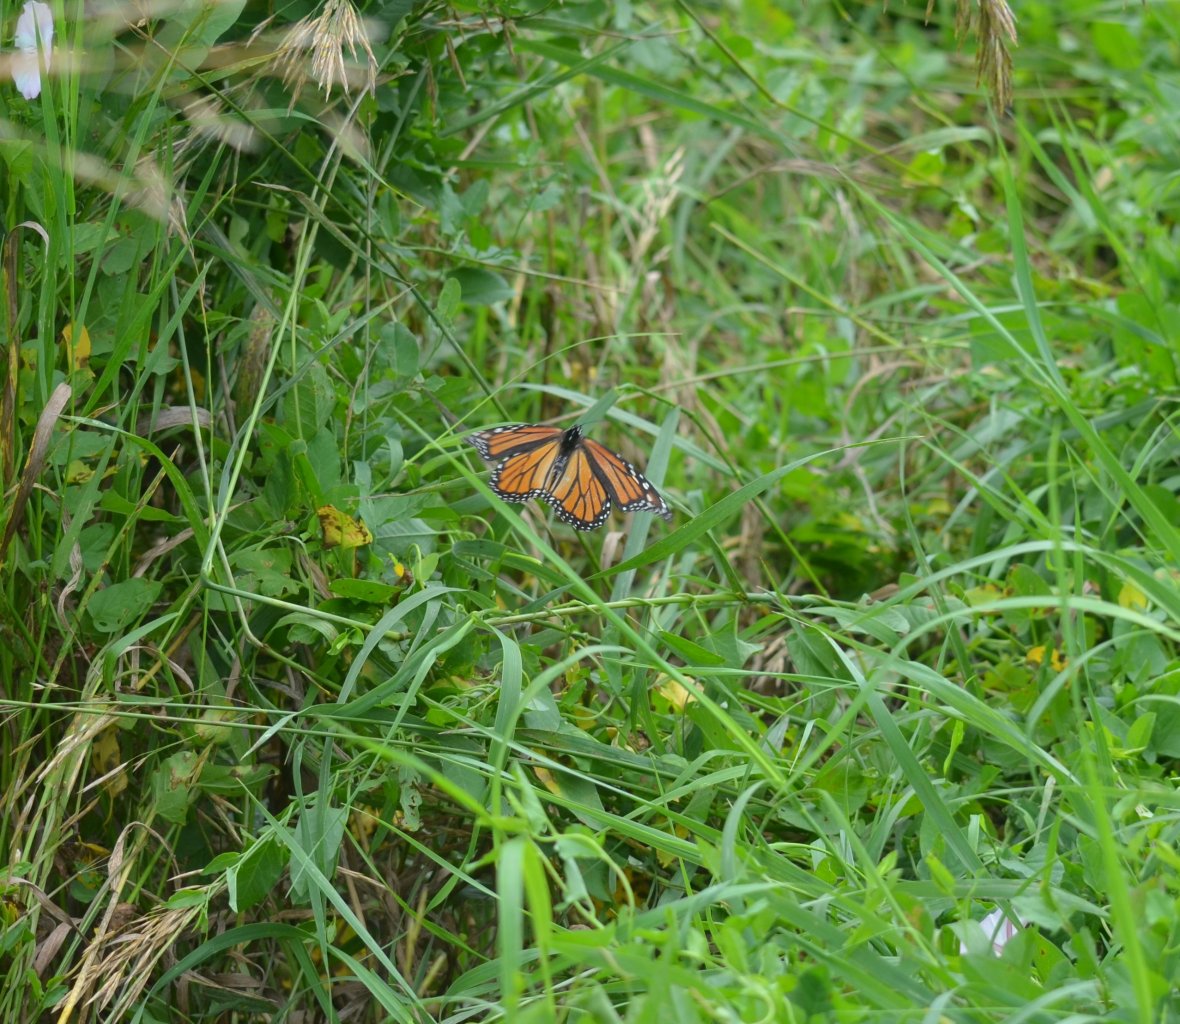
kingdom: Animalia
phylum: Arthropoda
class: Insecta
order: Lepidoptera
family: Nymphalidae
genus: Danaus
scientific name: Danaus plexippus
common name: Monarch
